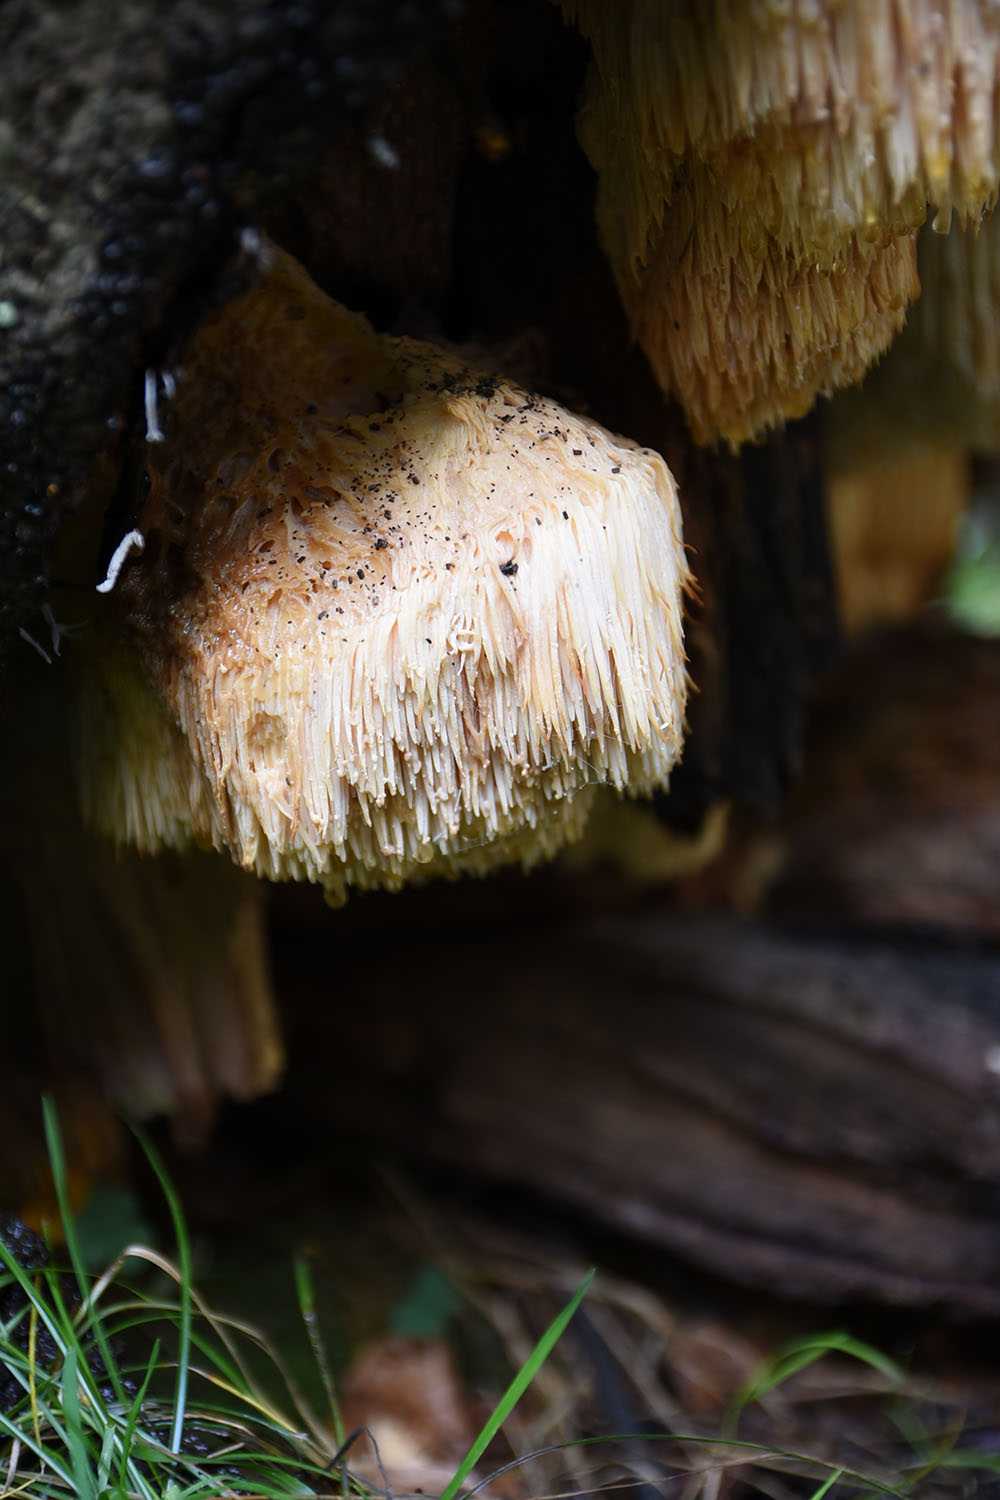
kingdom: Fungi
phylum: Basidiomycota
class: Agaricomycetes
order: Russulales
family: Hericiaceae
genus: Hericium
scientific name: Hericium erinaceus
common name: Bearded tooth
